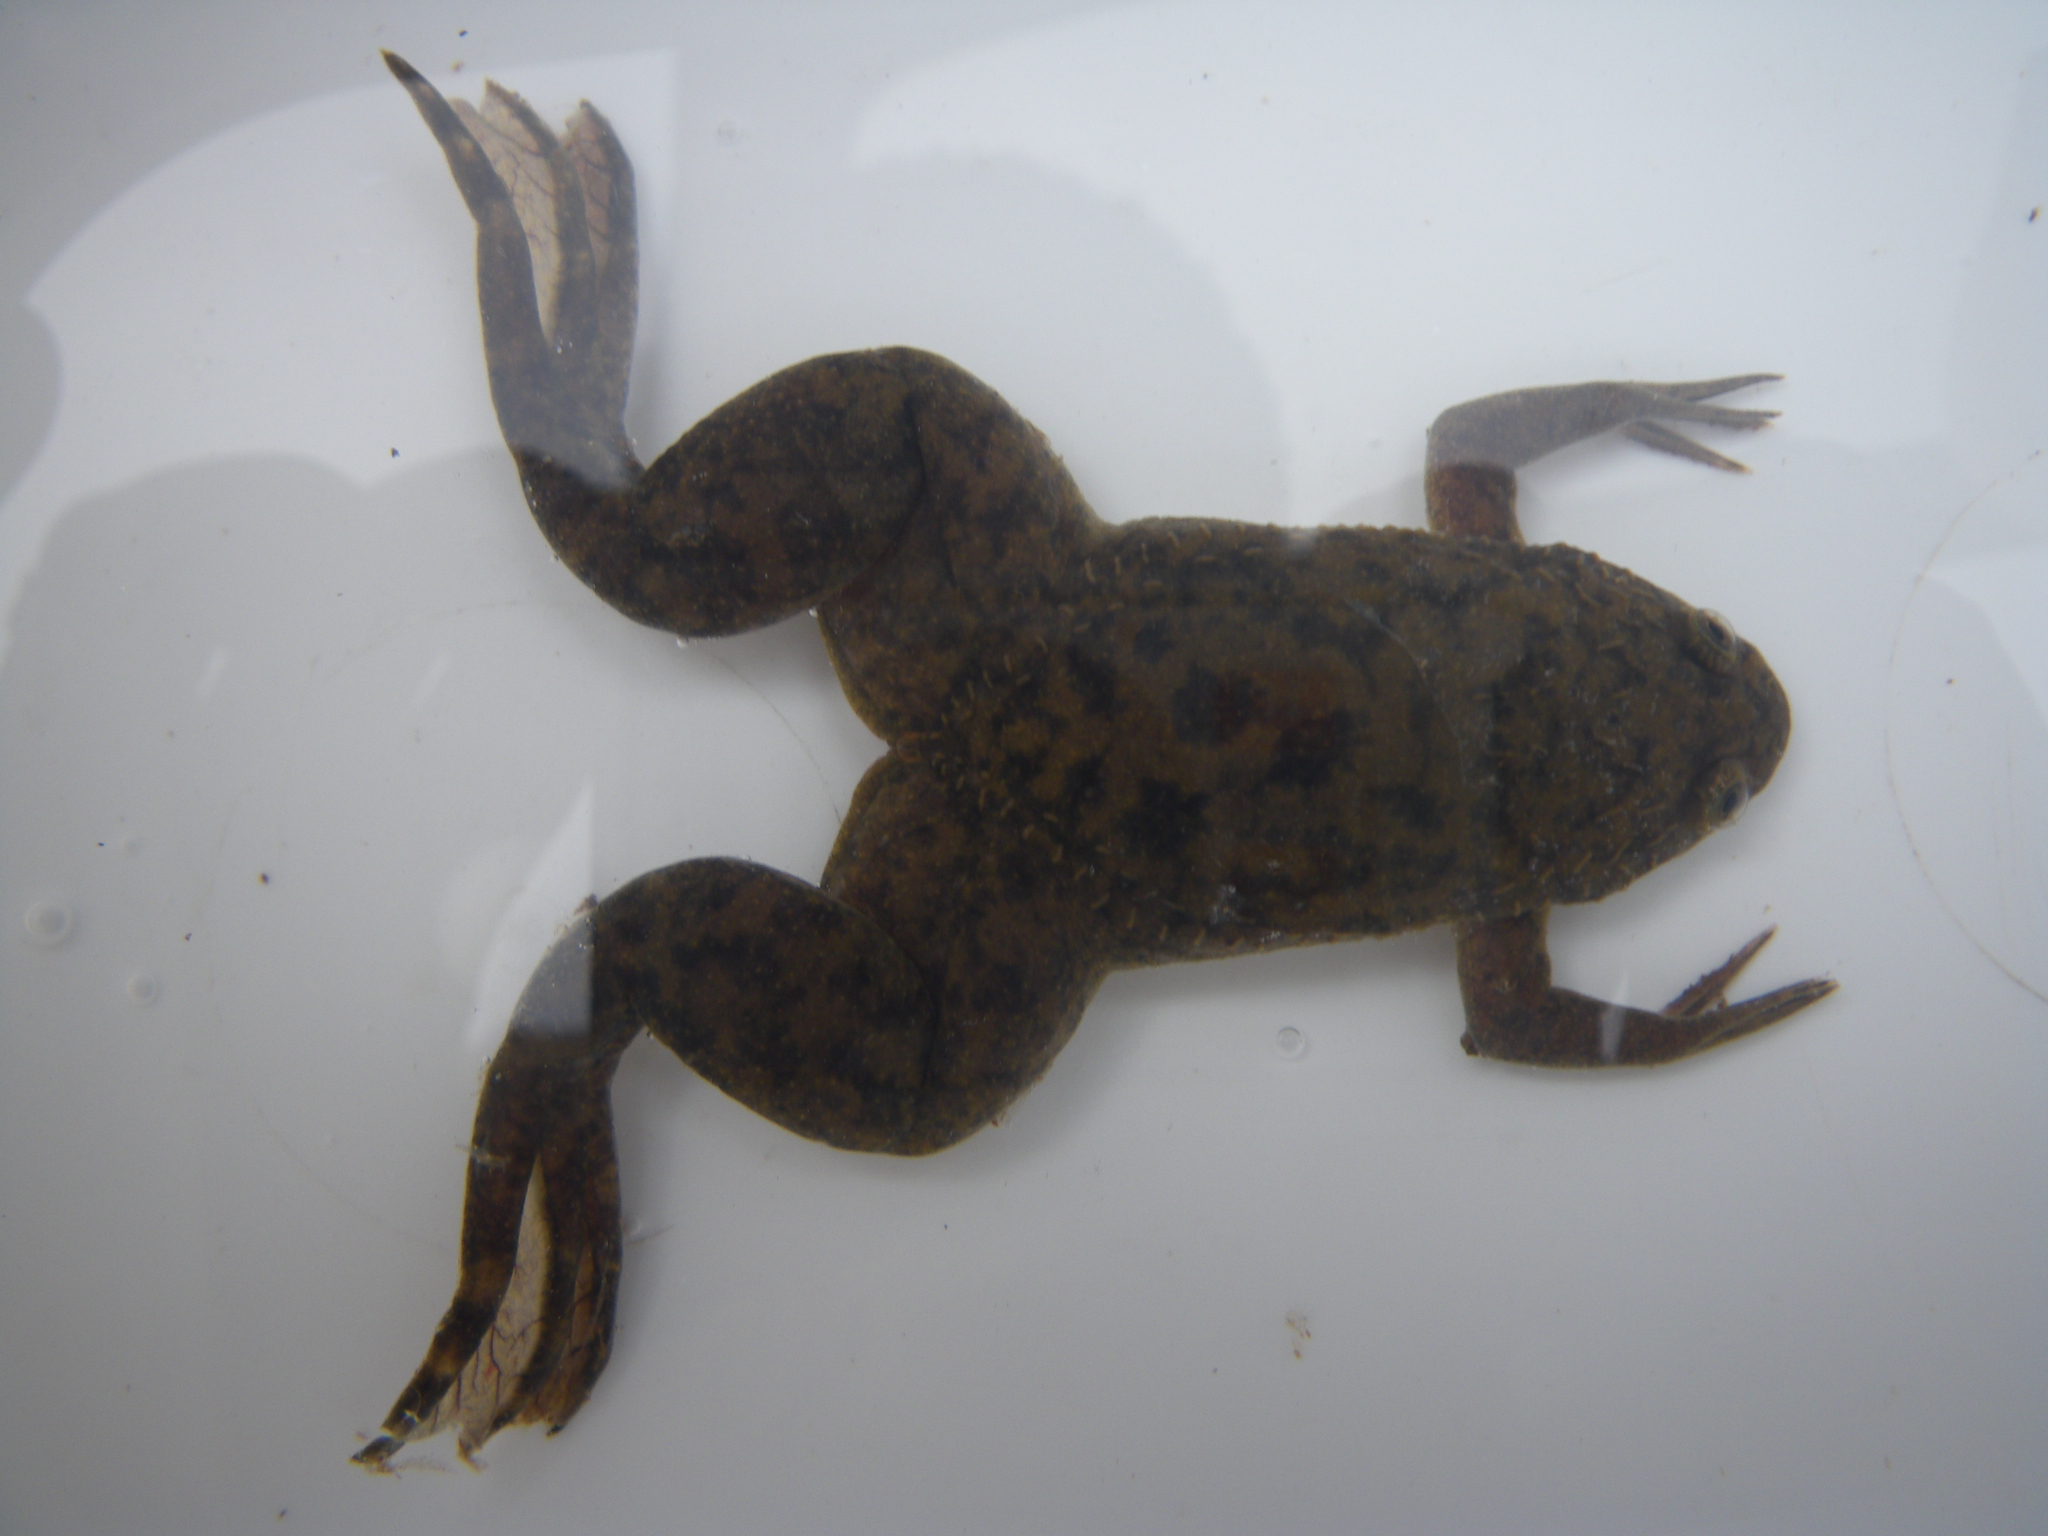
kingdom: Animalia
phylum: Arthropoda
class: Malacostraca
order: Decapoda
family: Potamonautidae
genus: Potamonautes
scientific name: Potamonautes
